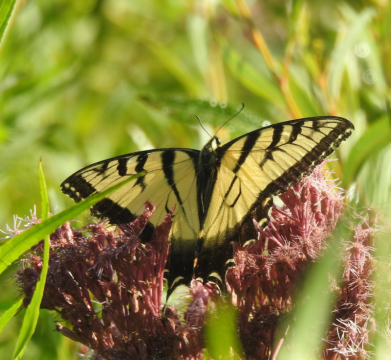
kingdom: Animalia
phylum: Arthropoda
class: Insecta
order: Lepidoptera
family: Papilionidae
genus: Pterourus
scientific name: Pterourus glaucus
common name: Eastern Tiger Swallowtail
